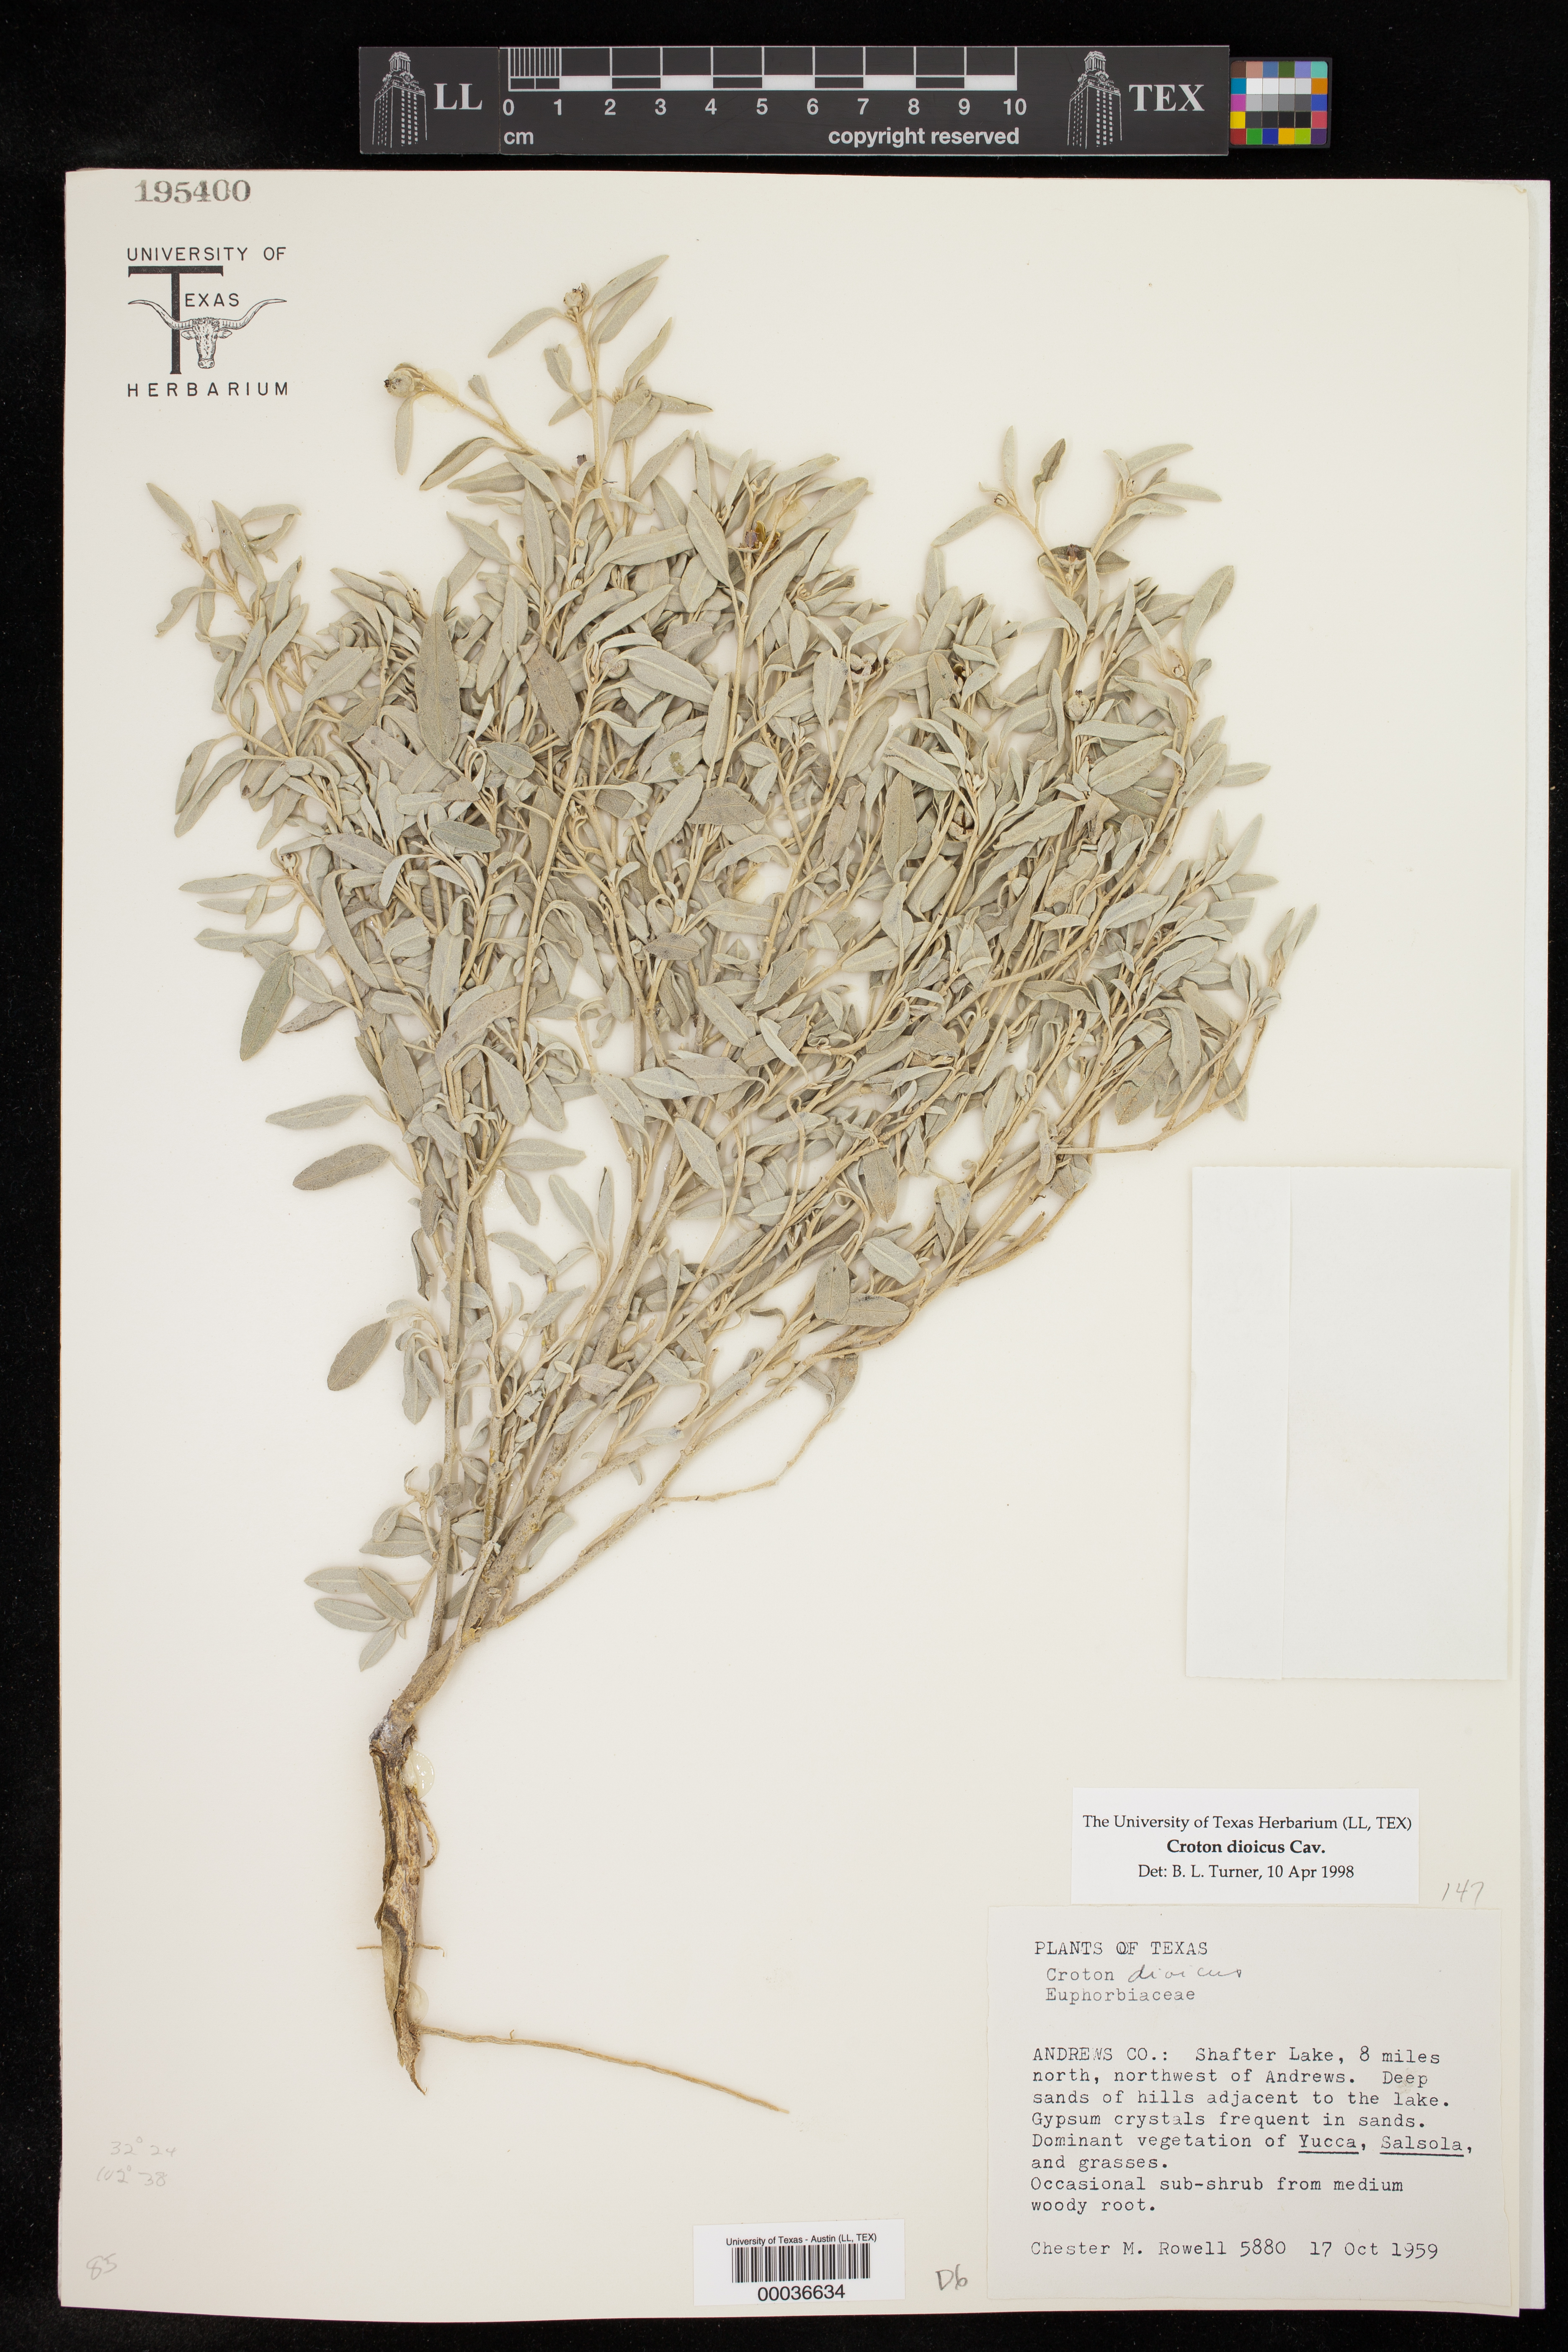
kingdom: Plantae
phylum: Tracheophyta
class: Magnoliopsida
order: Malpighiales
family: Euphorbiaceae
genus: Croton
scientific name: Croton dioicus
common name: Grassland croton
